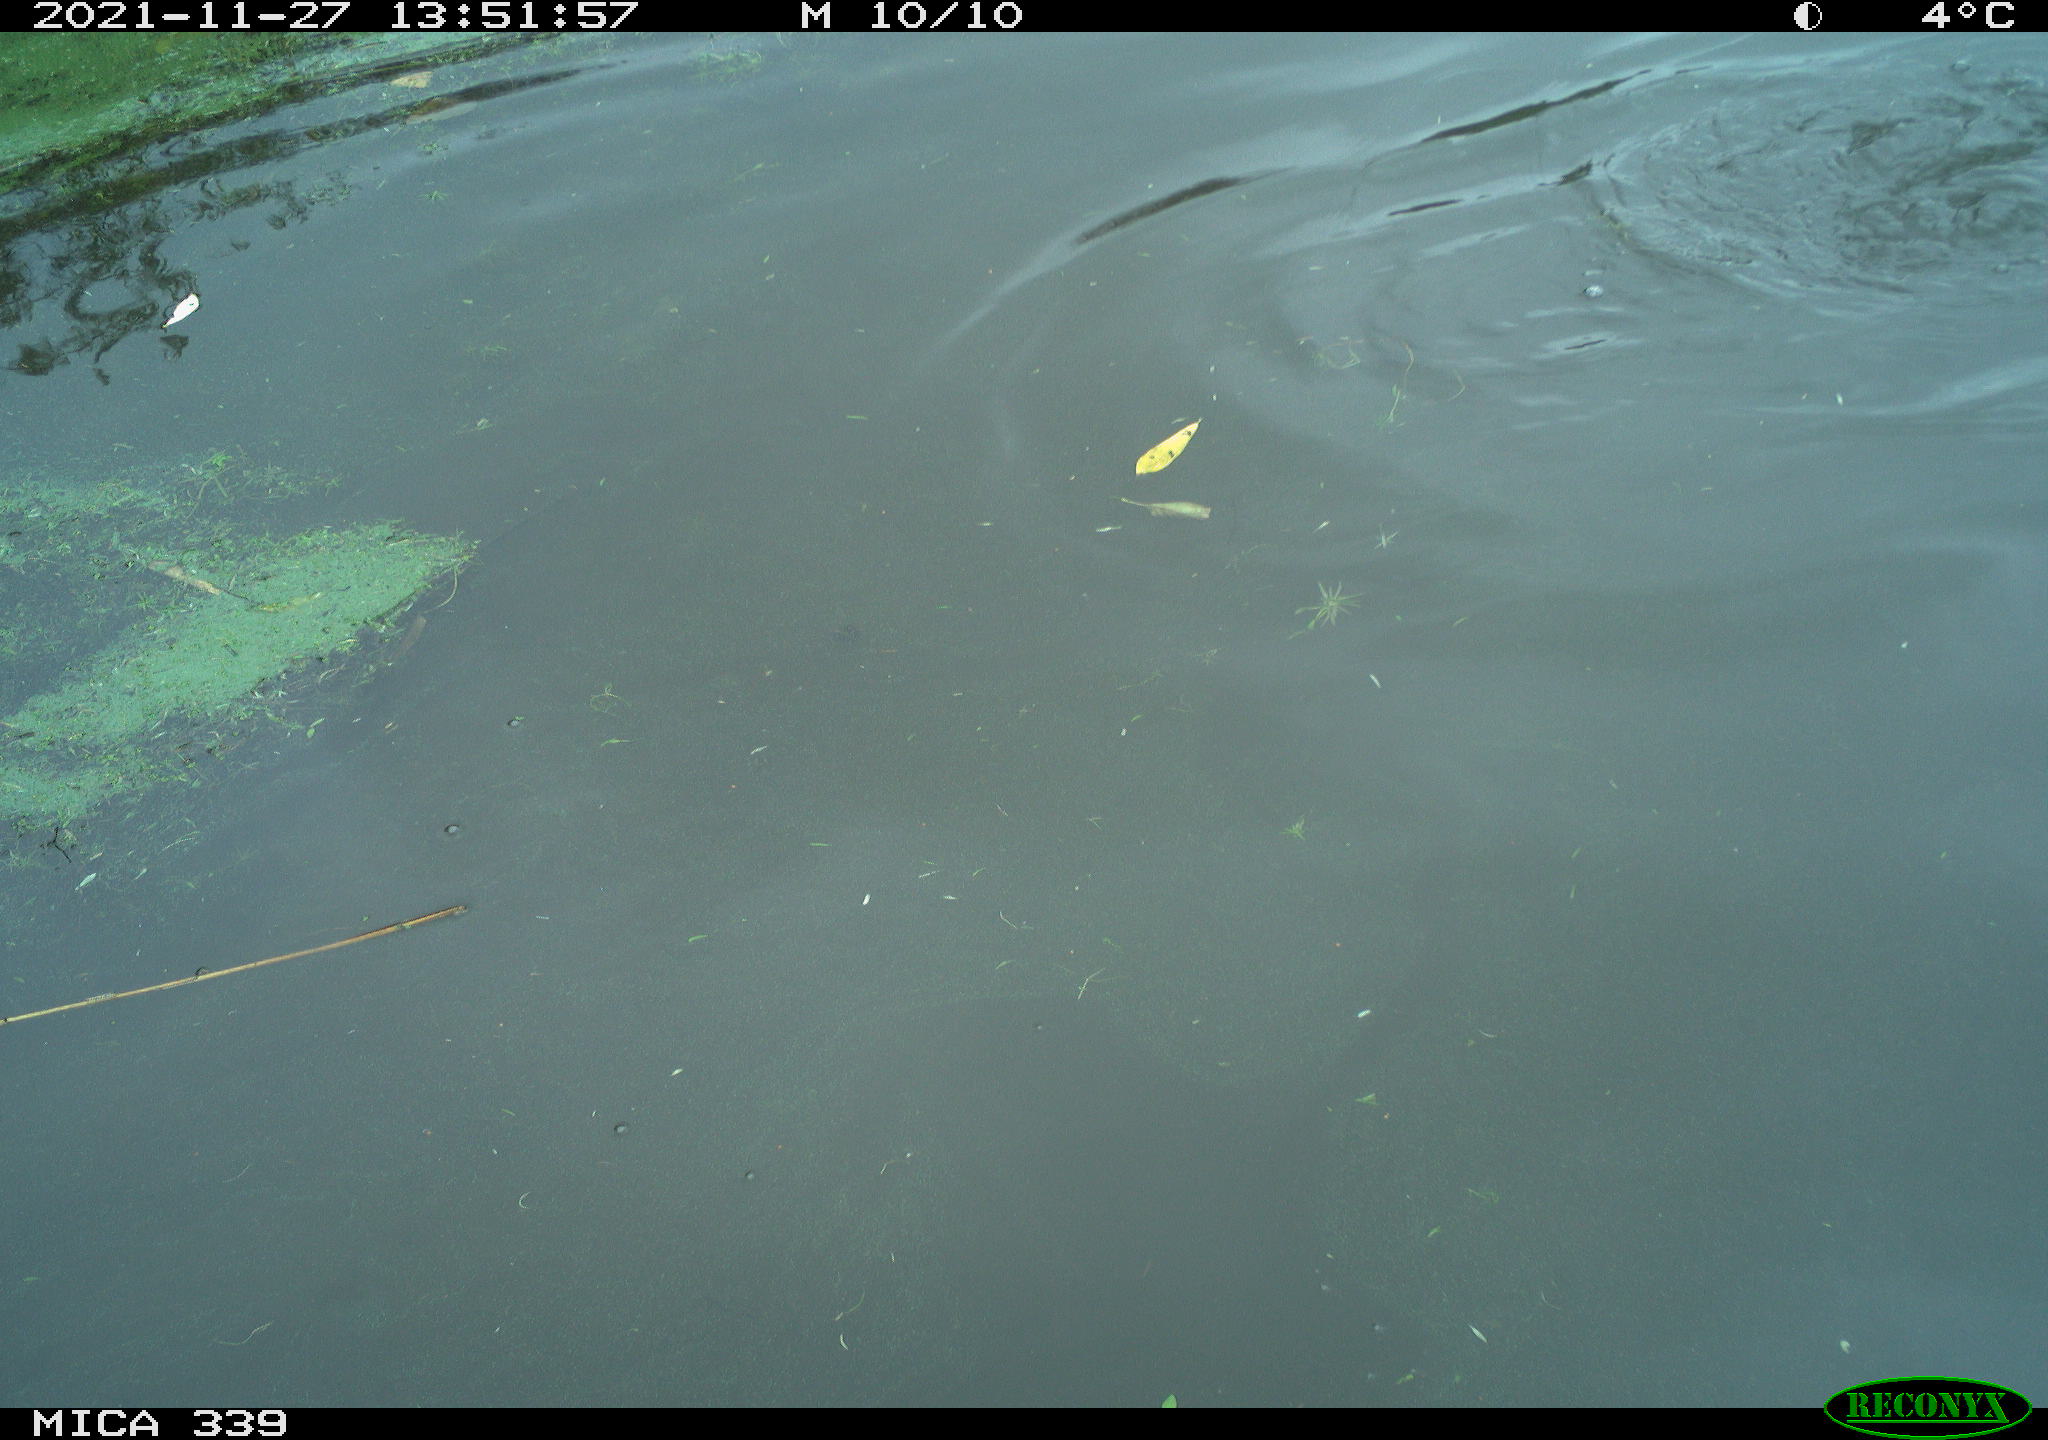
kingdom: Animalia
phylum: Chordata
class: Aves
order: Suliformes
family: Phalacrocoracidae
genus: Phalacrocorax
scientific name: Phalacrocorax carbo
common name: Great cormorant
